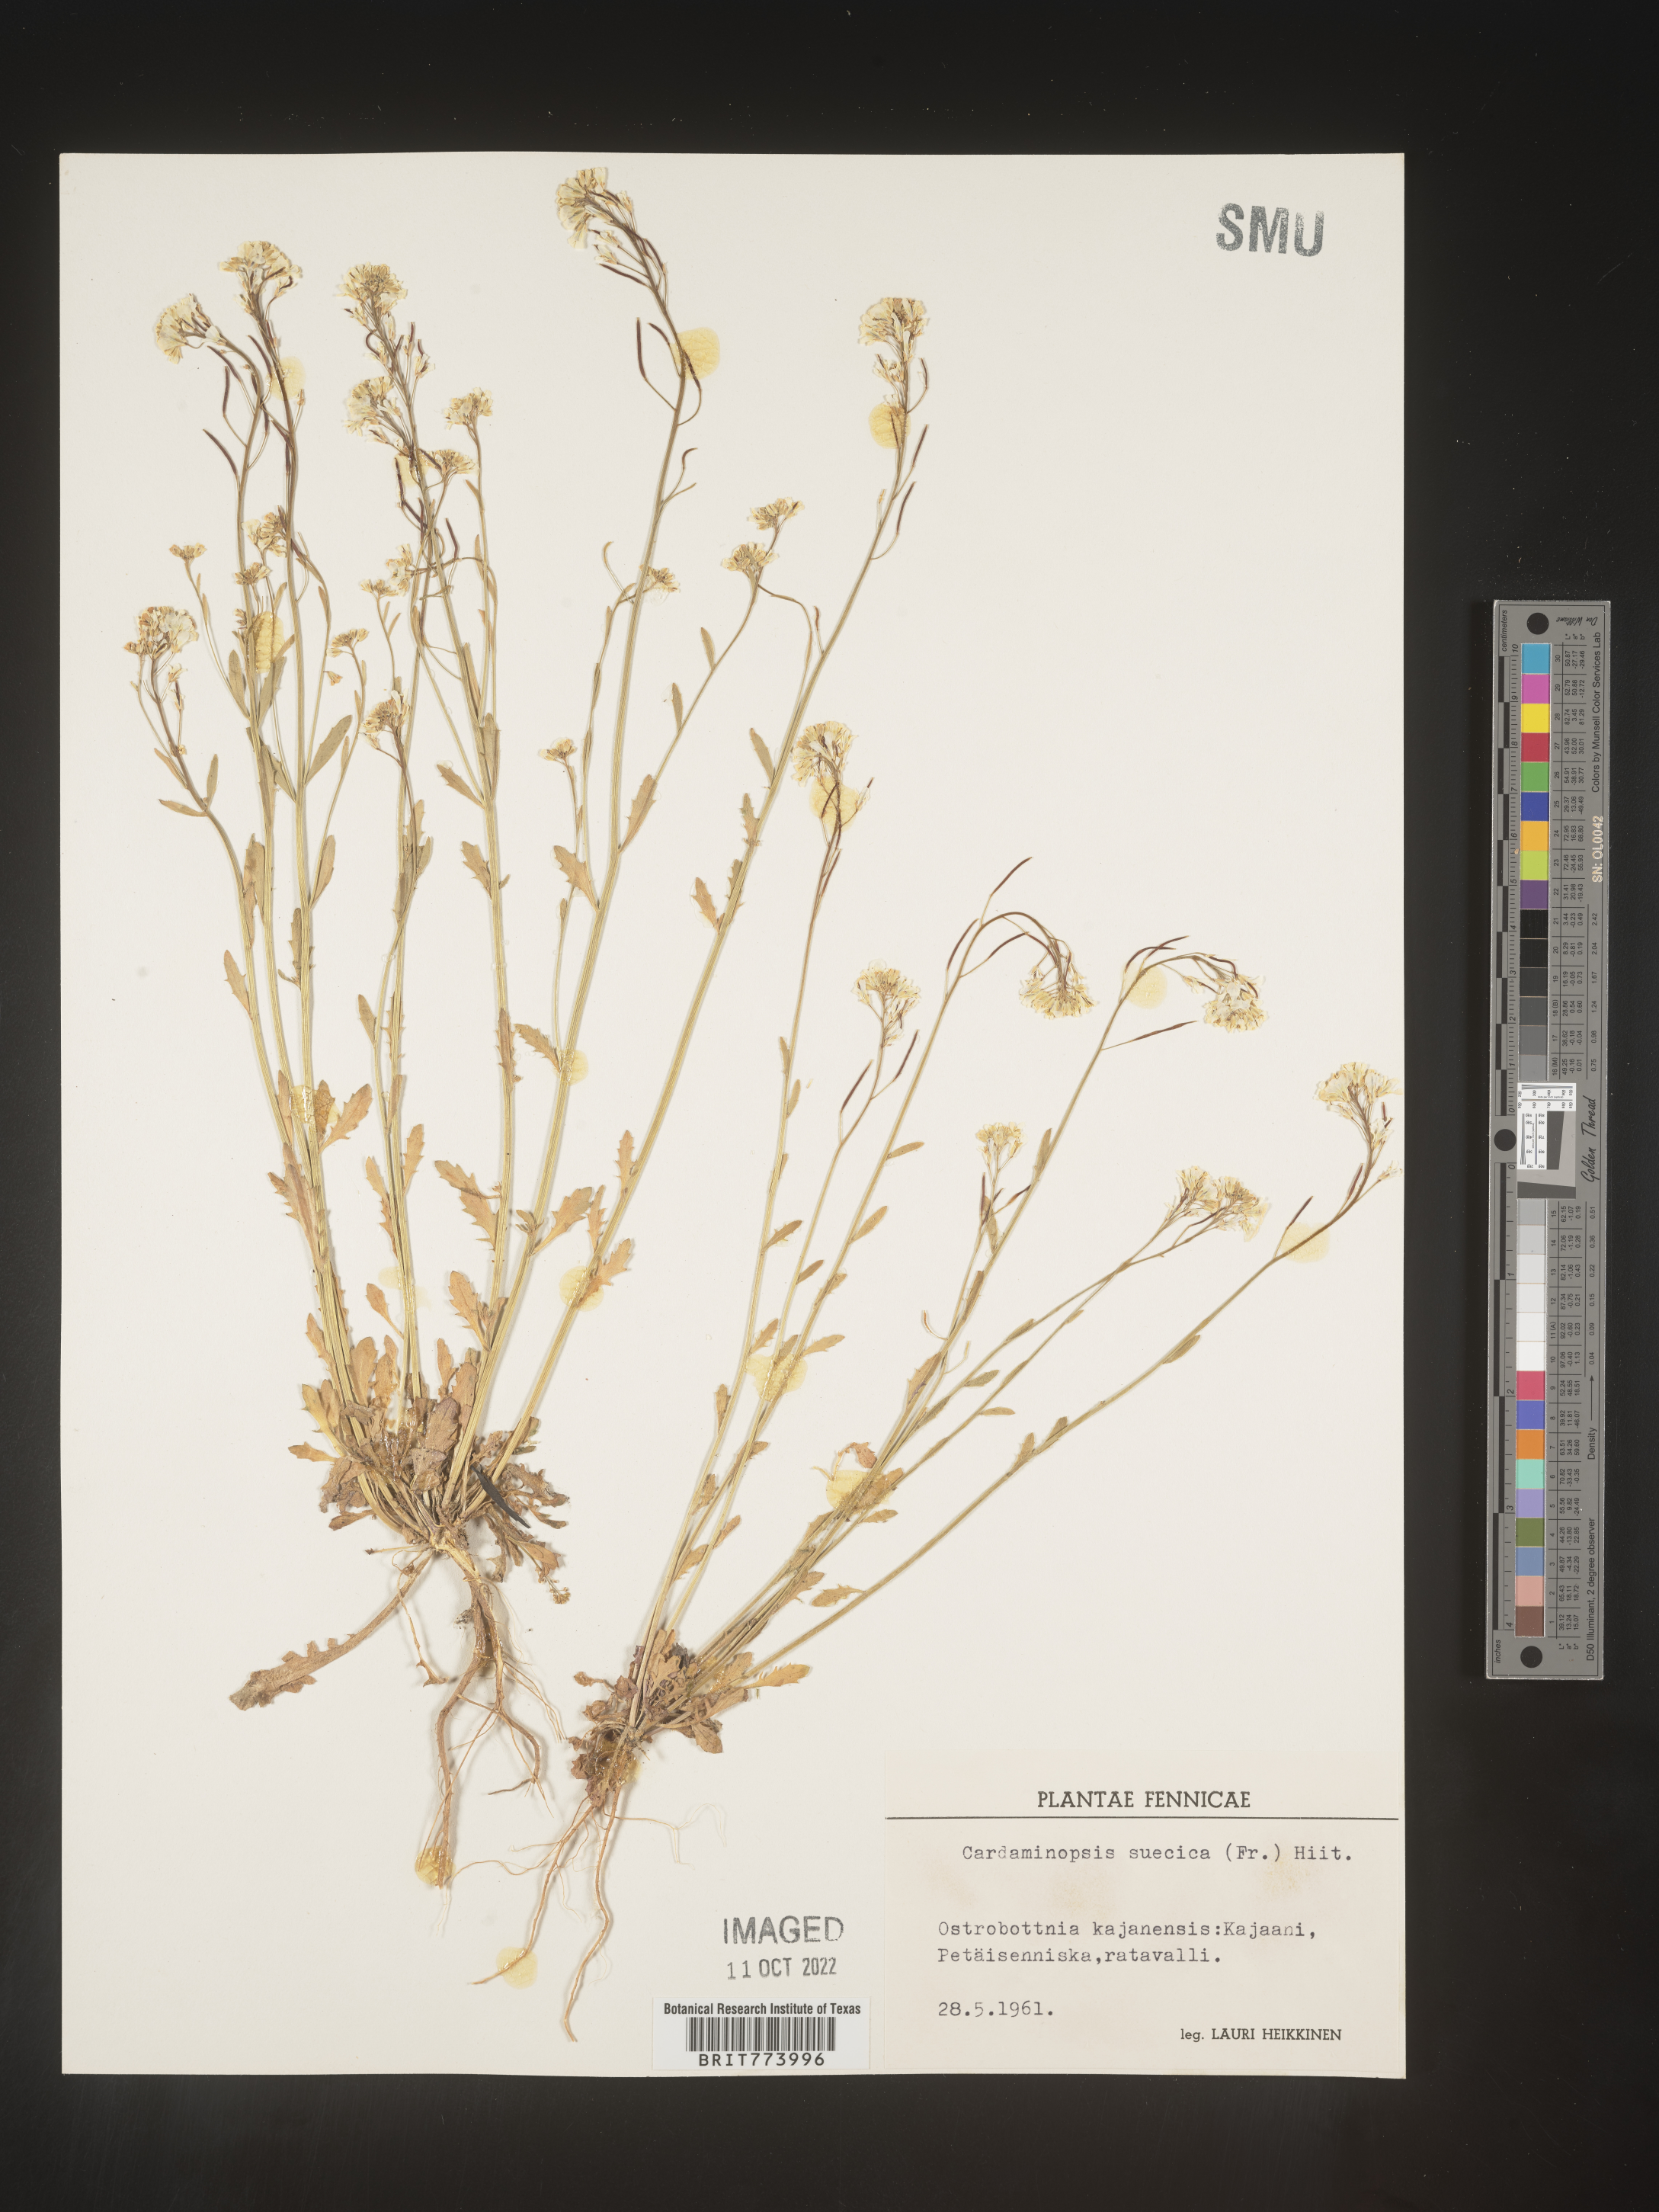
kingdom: Plantae
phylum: Tracheophyta
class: Magnoliopsida
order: Brassicales
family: Brassicaceae
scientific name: Brassicaceae
